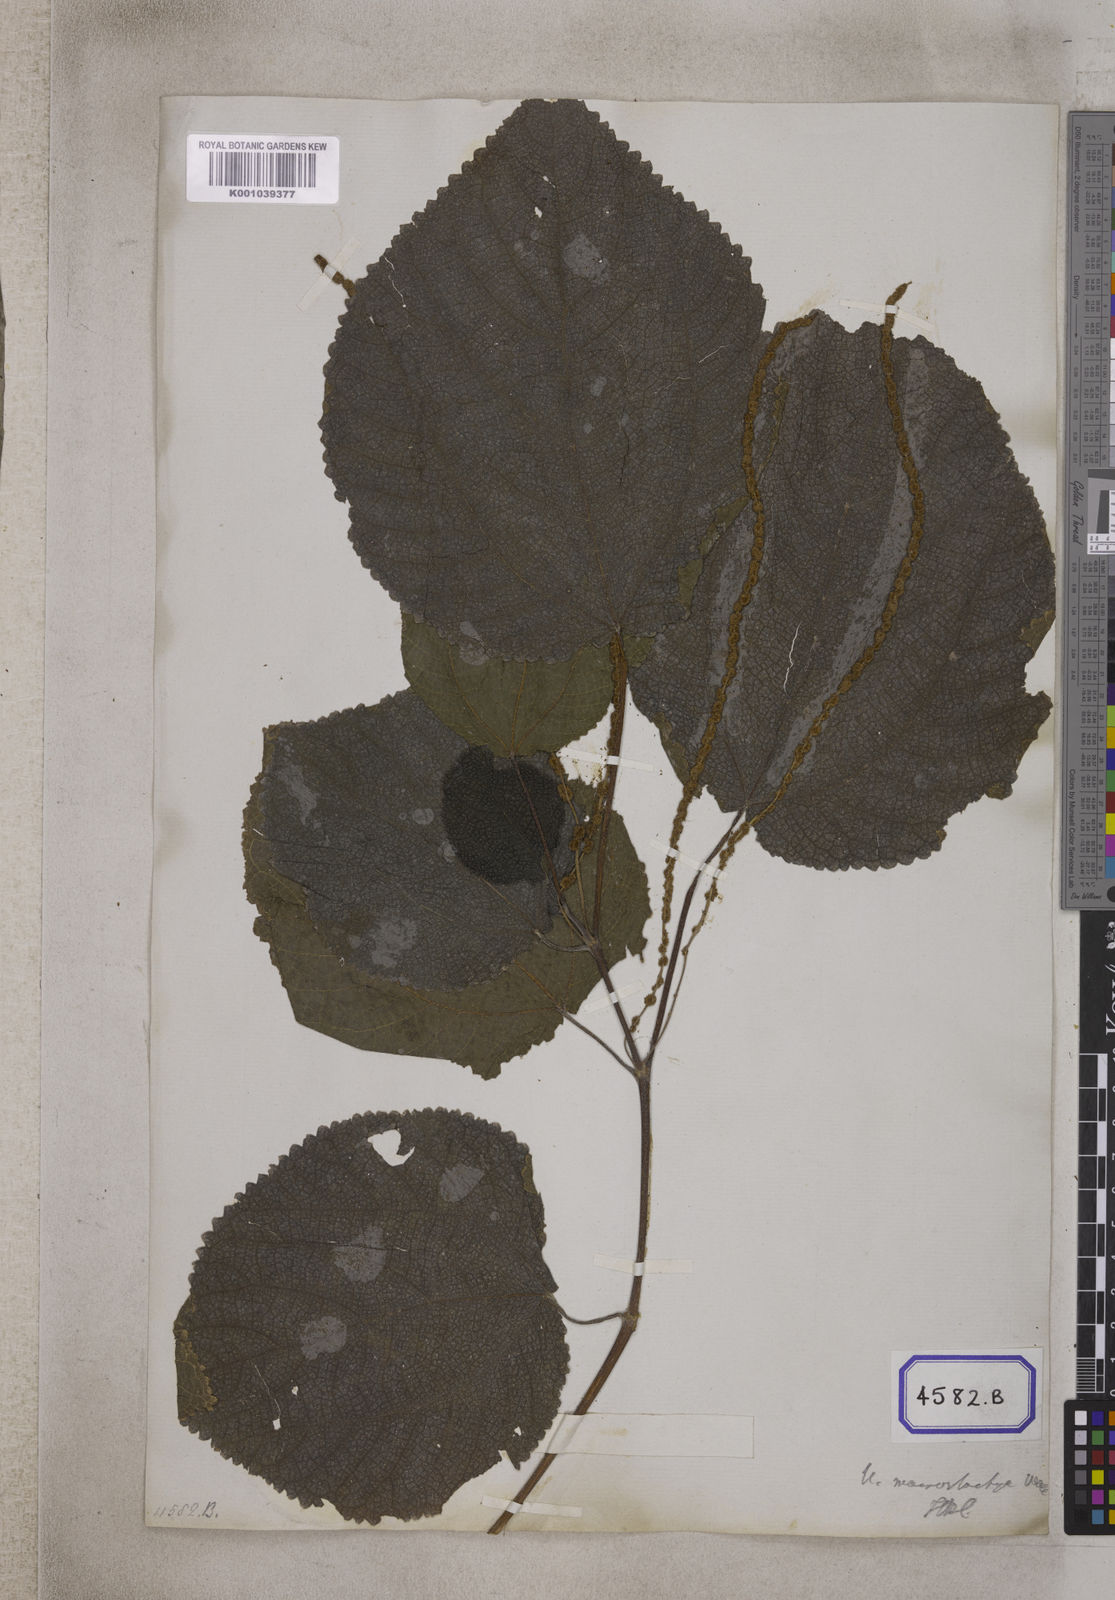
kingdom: Plantae
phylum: Tracheophyta
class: Magnoliopsida
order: Rosales
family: Urticaceae
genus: Boehmeria
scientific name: Boehmeria virgata
